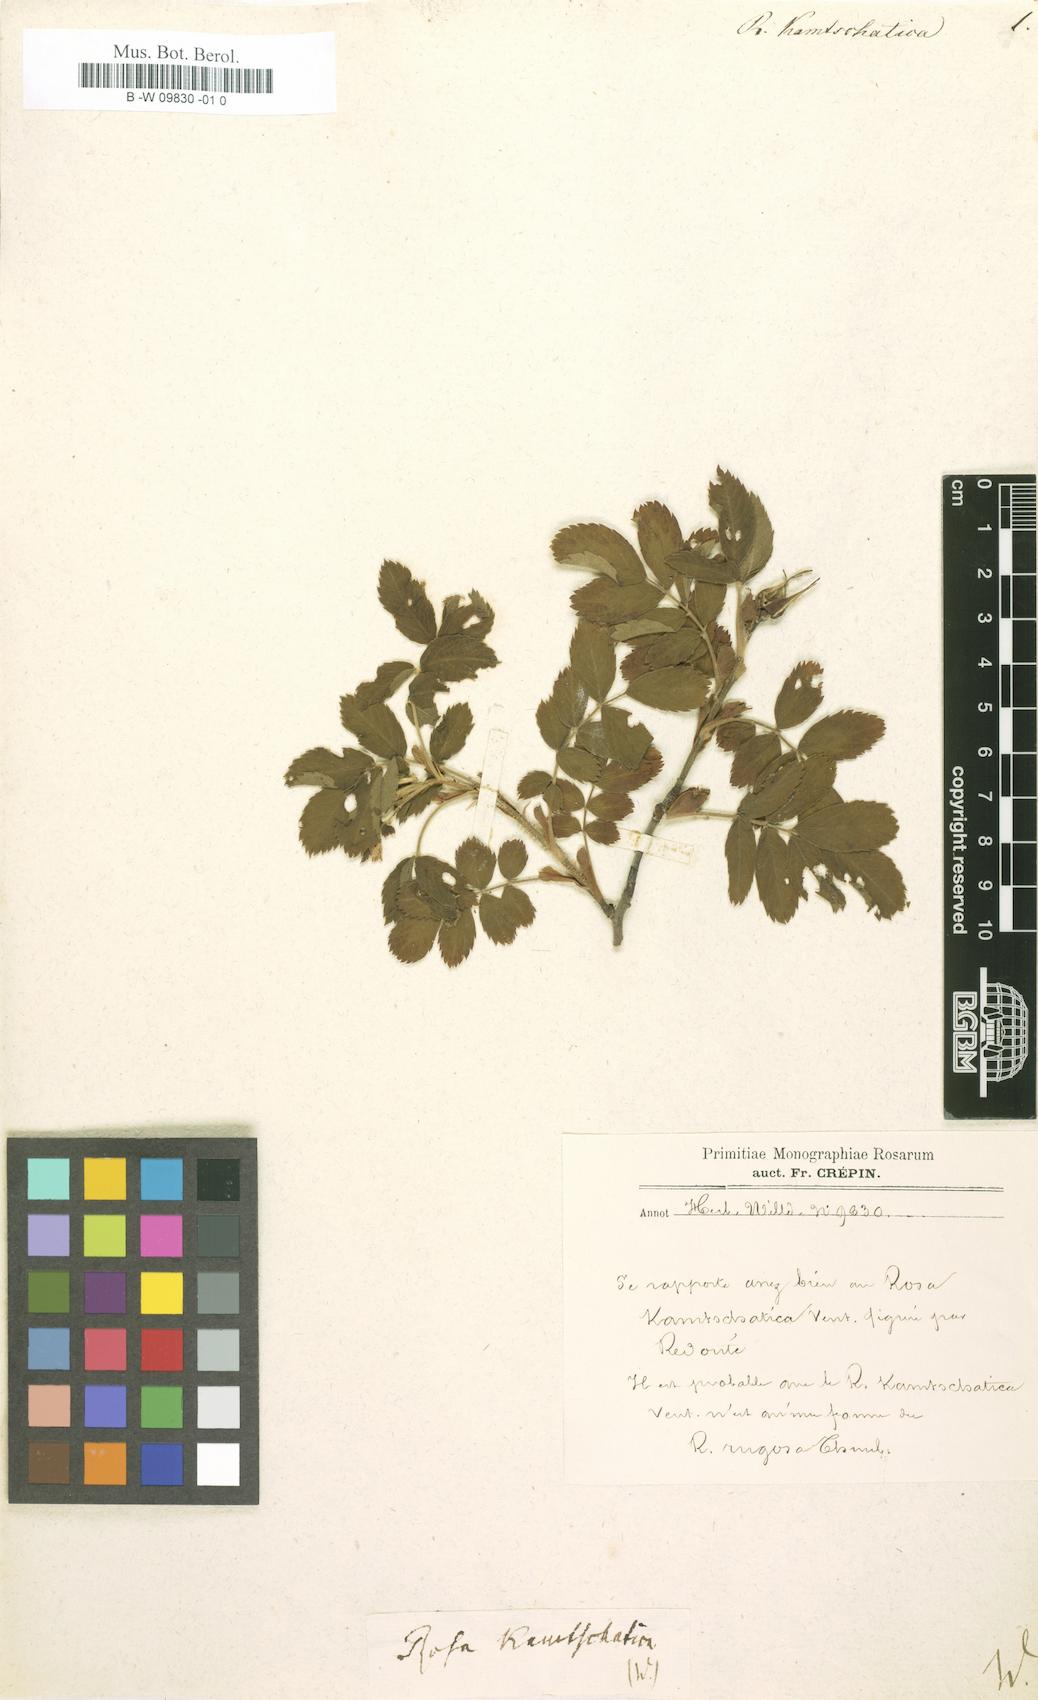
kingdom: Plantae
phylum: Tracheophyta
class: Magnoliopsida
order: Rosales
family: Rosaceae
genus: Rosa
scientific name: Rosa kamtschatica
